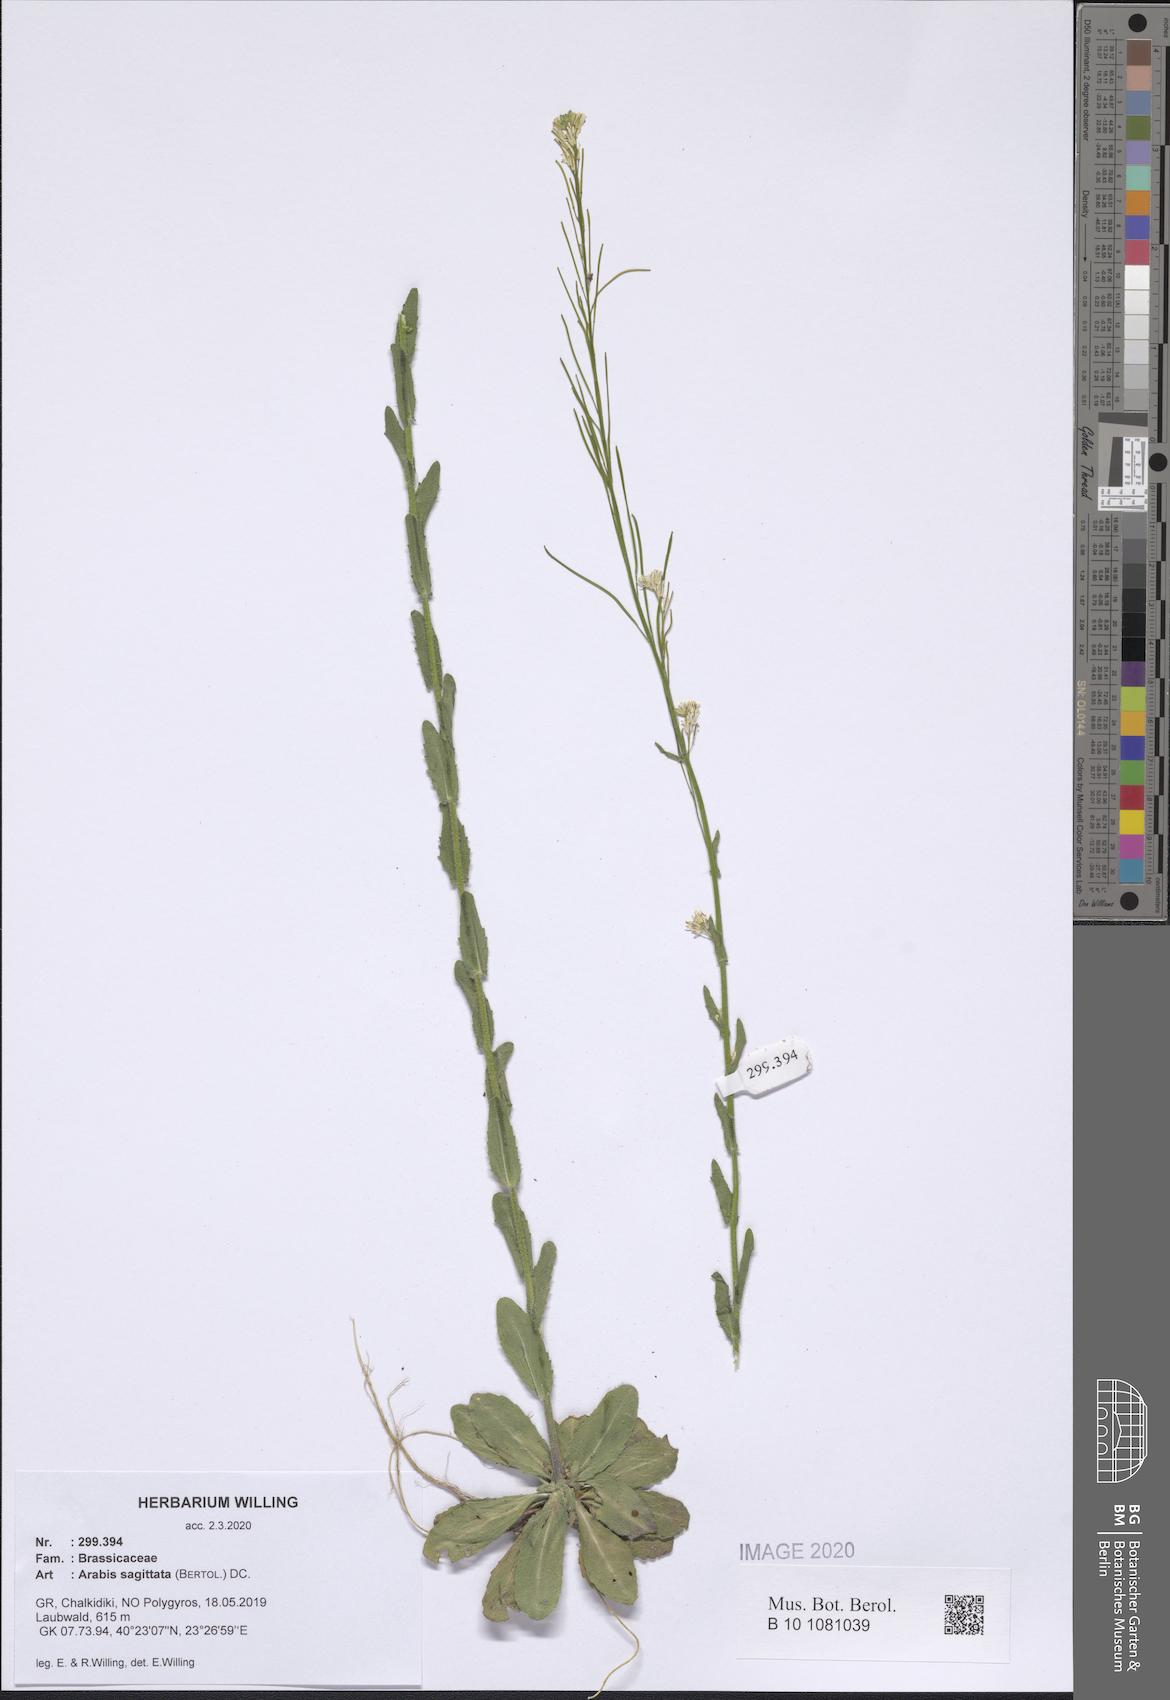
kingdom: Plantae
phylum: Tracheophyta
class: Magnoliopsida
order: Brassicales
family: Brassicaceae
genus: Arabis
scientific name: Arabis sagittata
